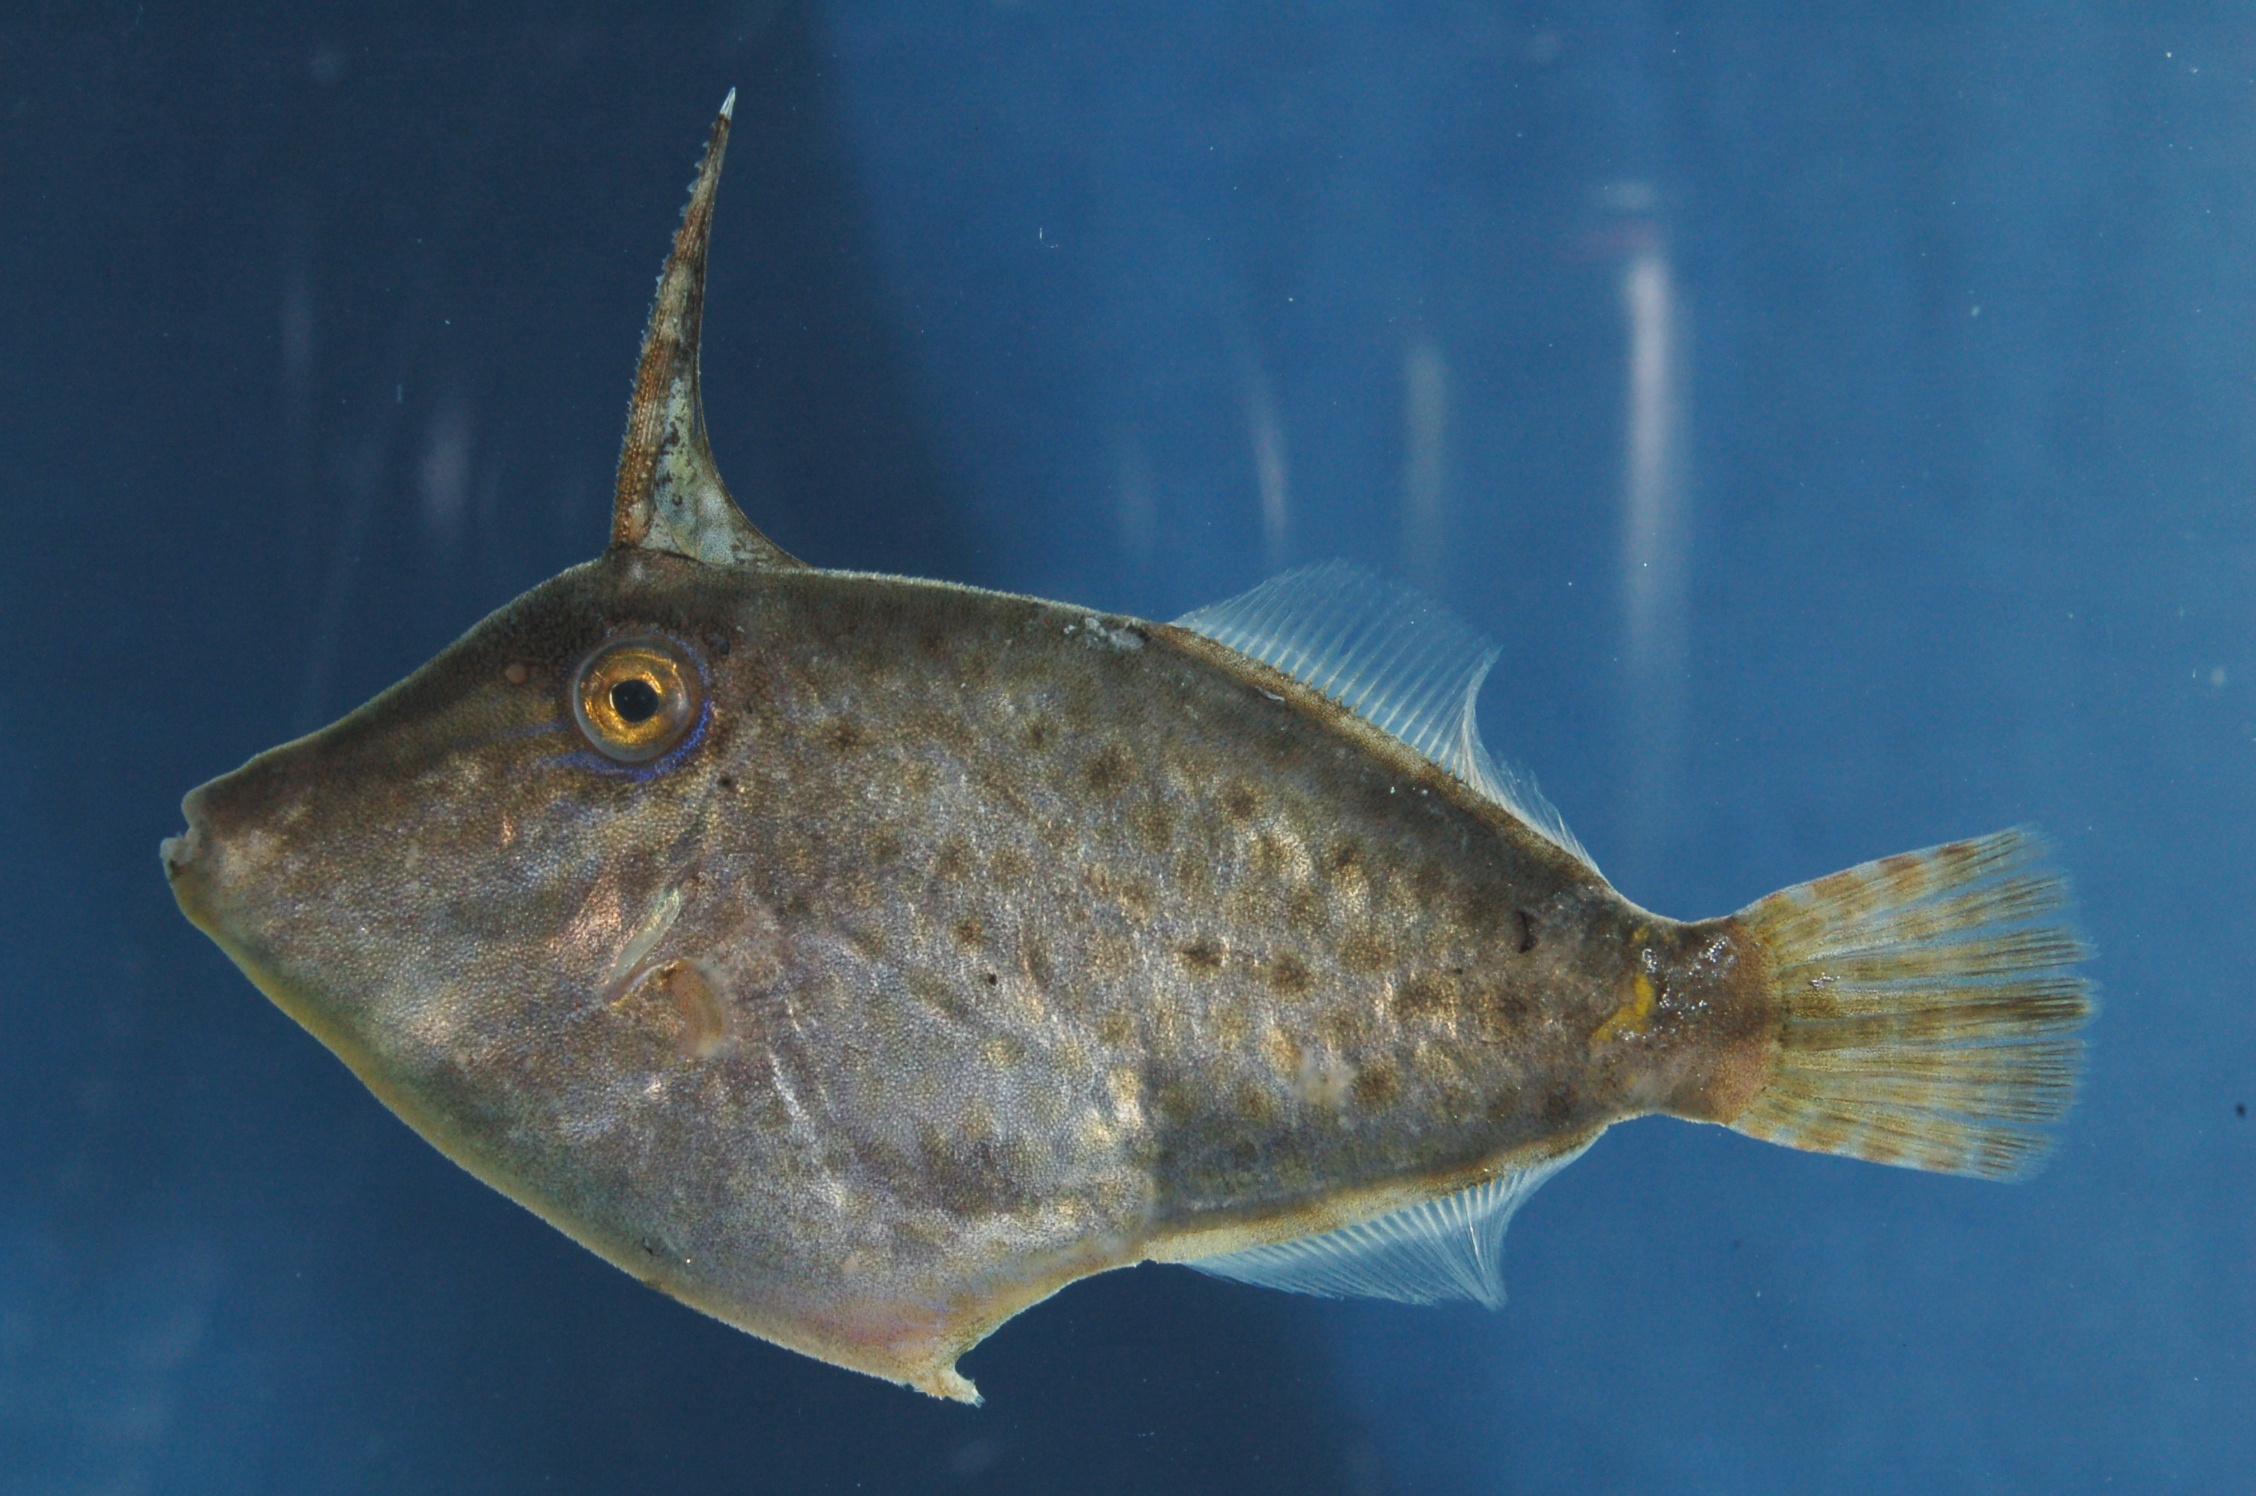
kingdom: Animalia
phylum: Chordata
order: Tetraodontiformes
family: Monacanthidae
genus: Cantherhines
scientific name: Cantherhines dumerilii
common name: Barred filefish
